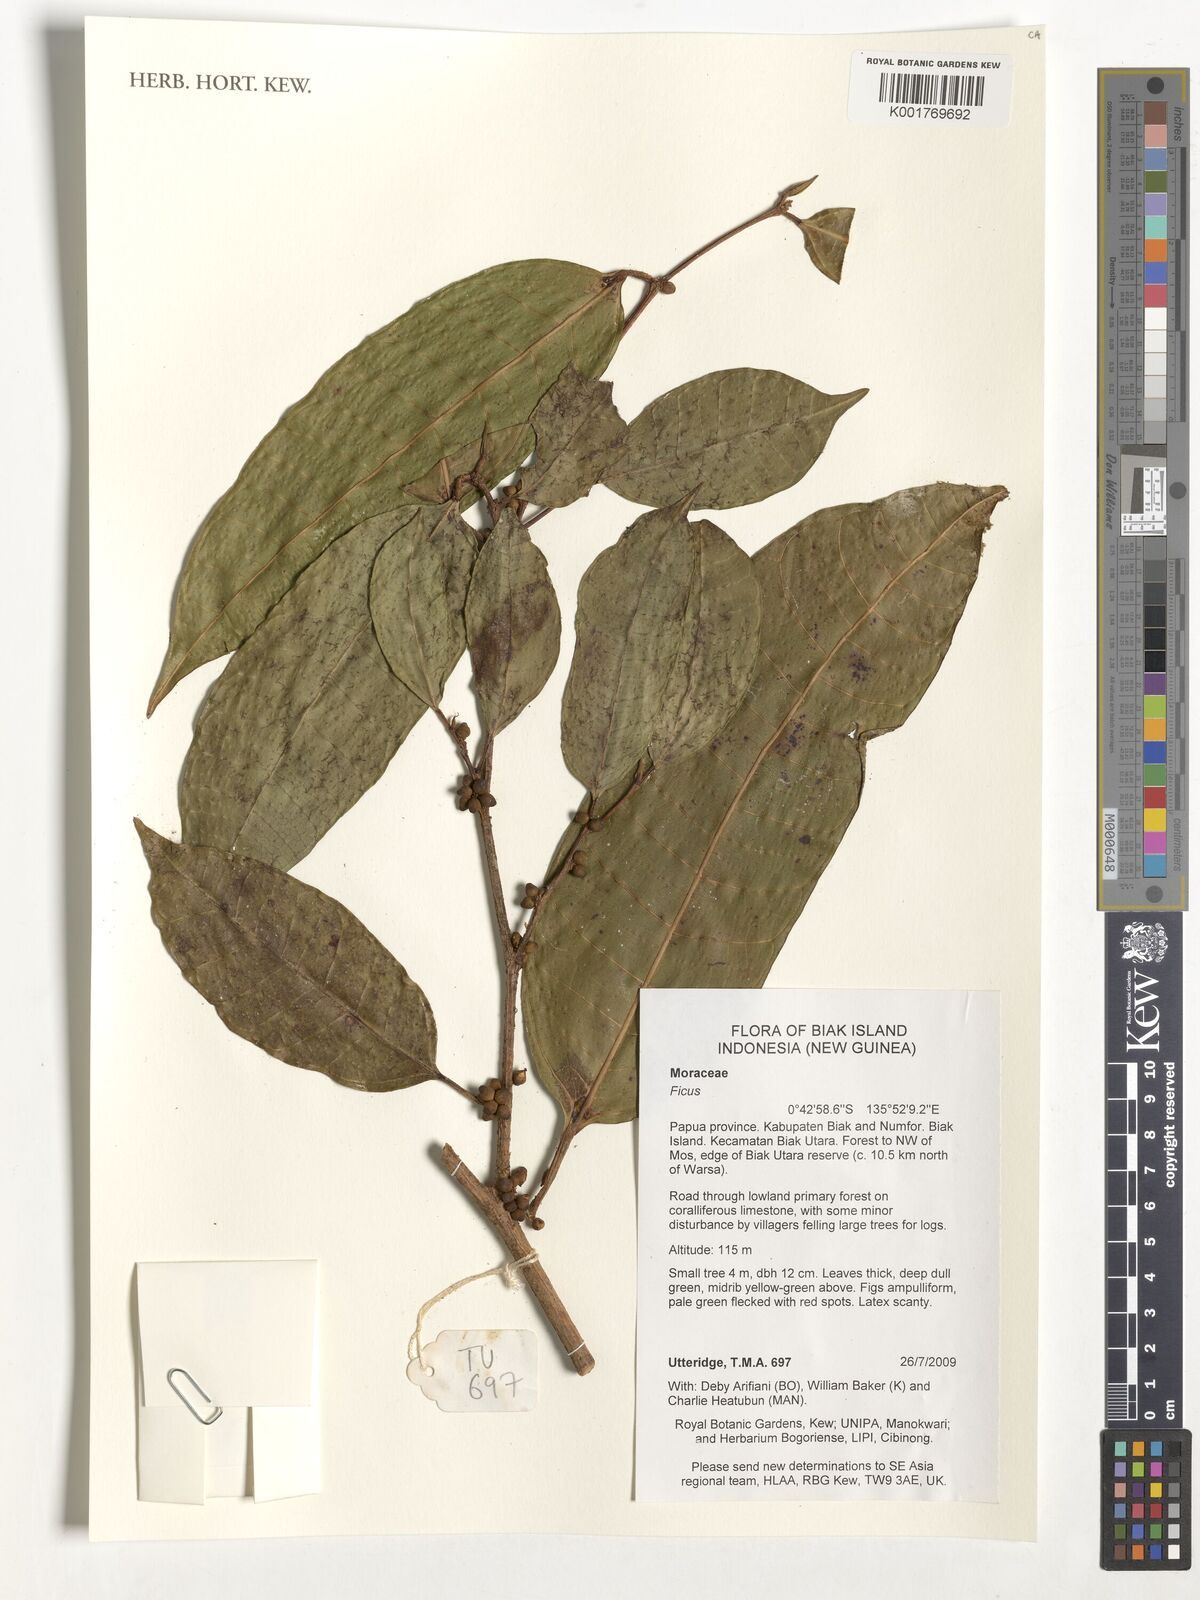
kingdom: Plantae
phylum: Tracheophyta
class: Magnoliopsida
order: Rosales
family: Moraceae
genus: Ficus
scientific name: Ficus
